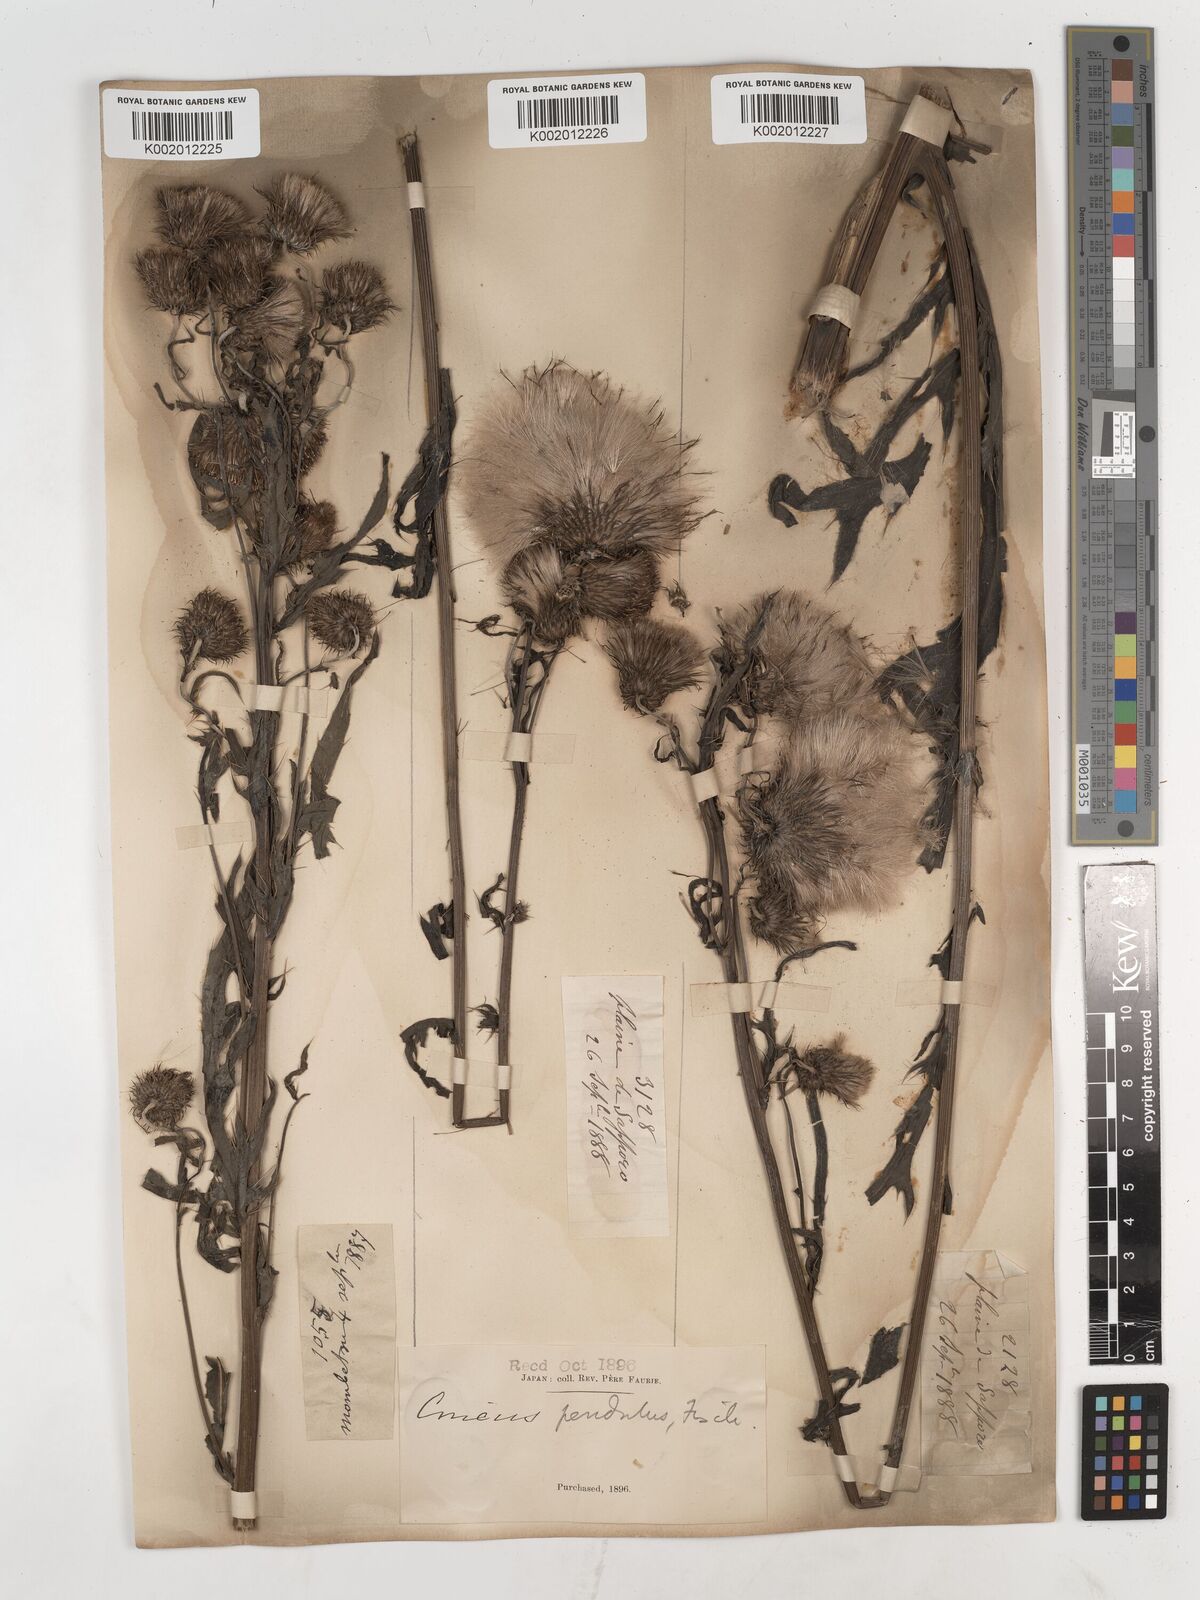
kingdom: Plantae
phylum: Tracheophyta
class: Magnoliopsida
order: Asterales
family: Asteraceae
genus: Cirsium
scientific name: Cirsium pendulum
